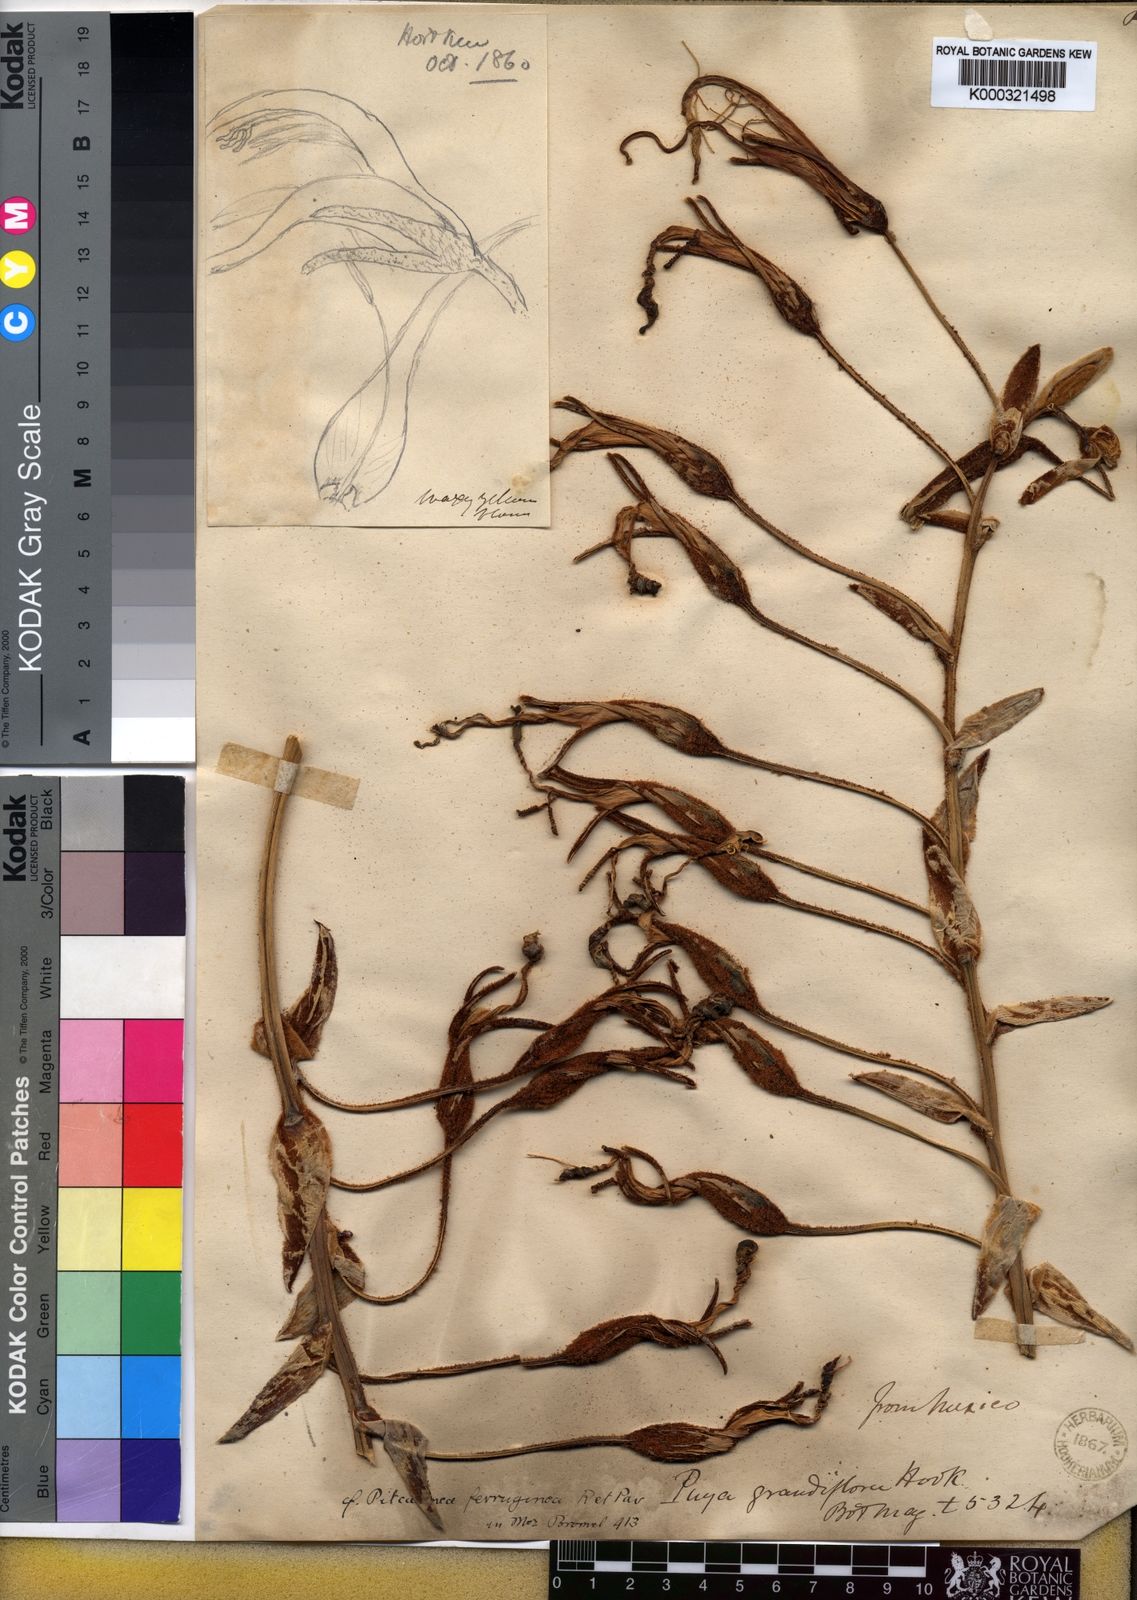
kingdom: Plantae
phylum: Tracheophyta
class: Liliopsida
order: Poales
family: Bromeliaceae
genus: Puya
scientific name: Puya ferruginea
